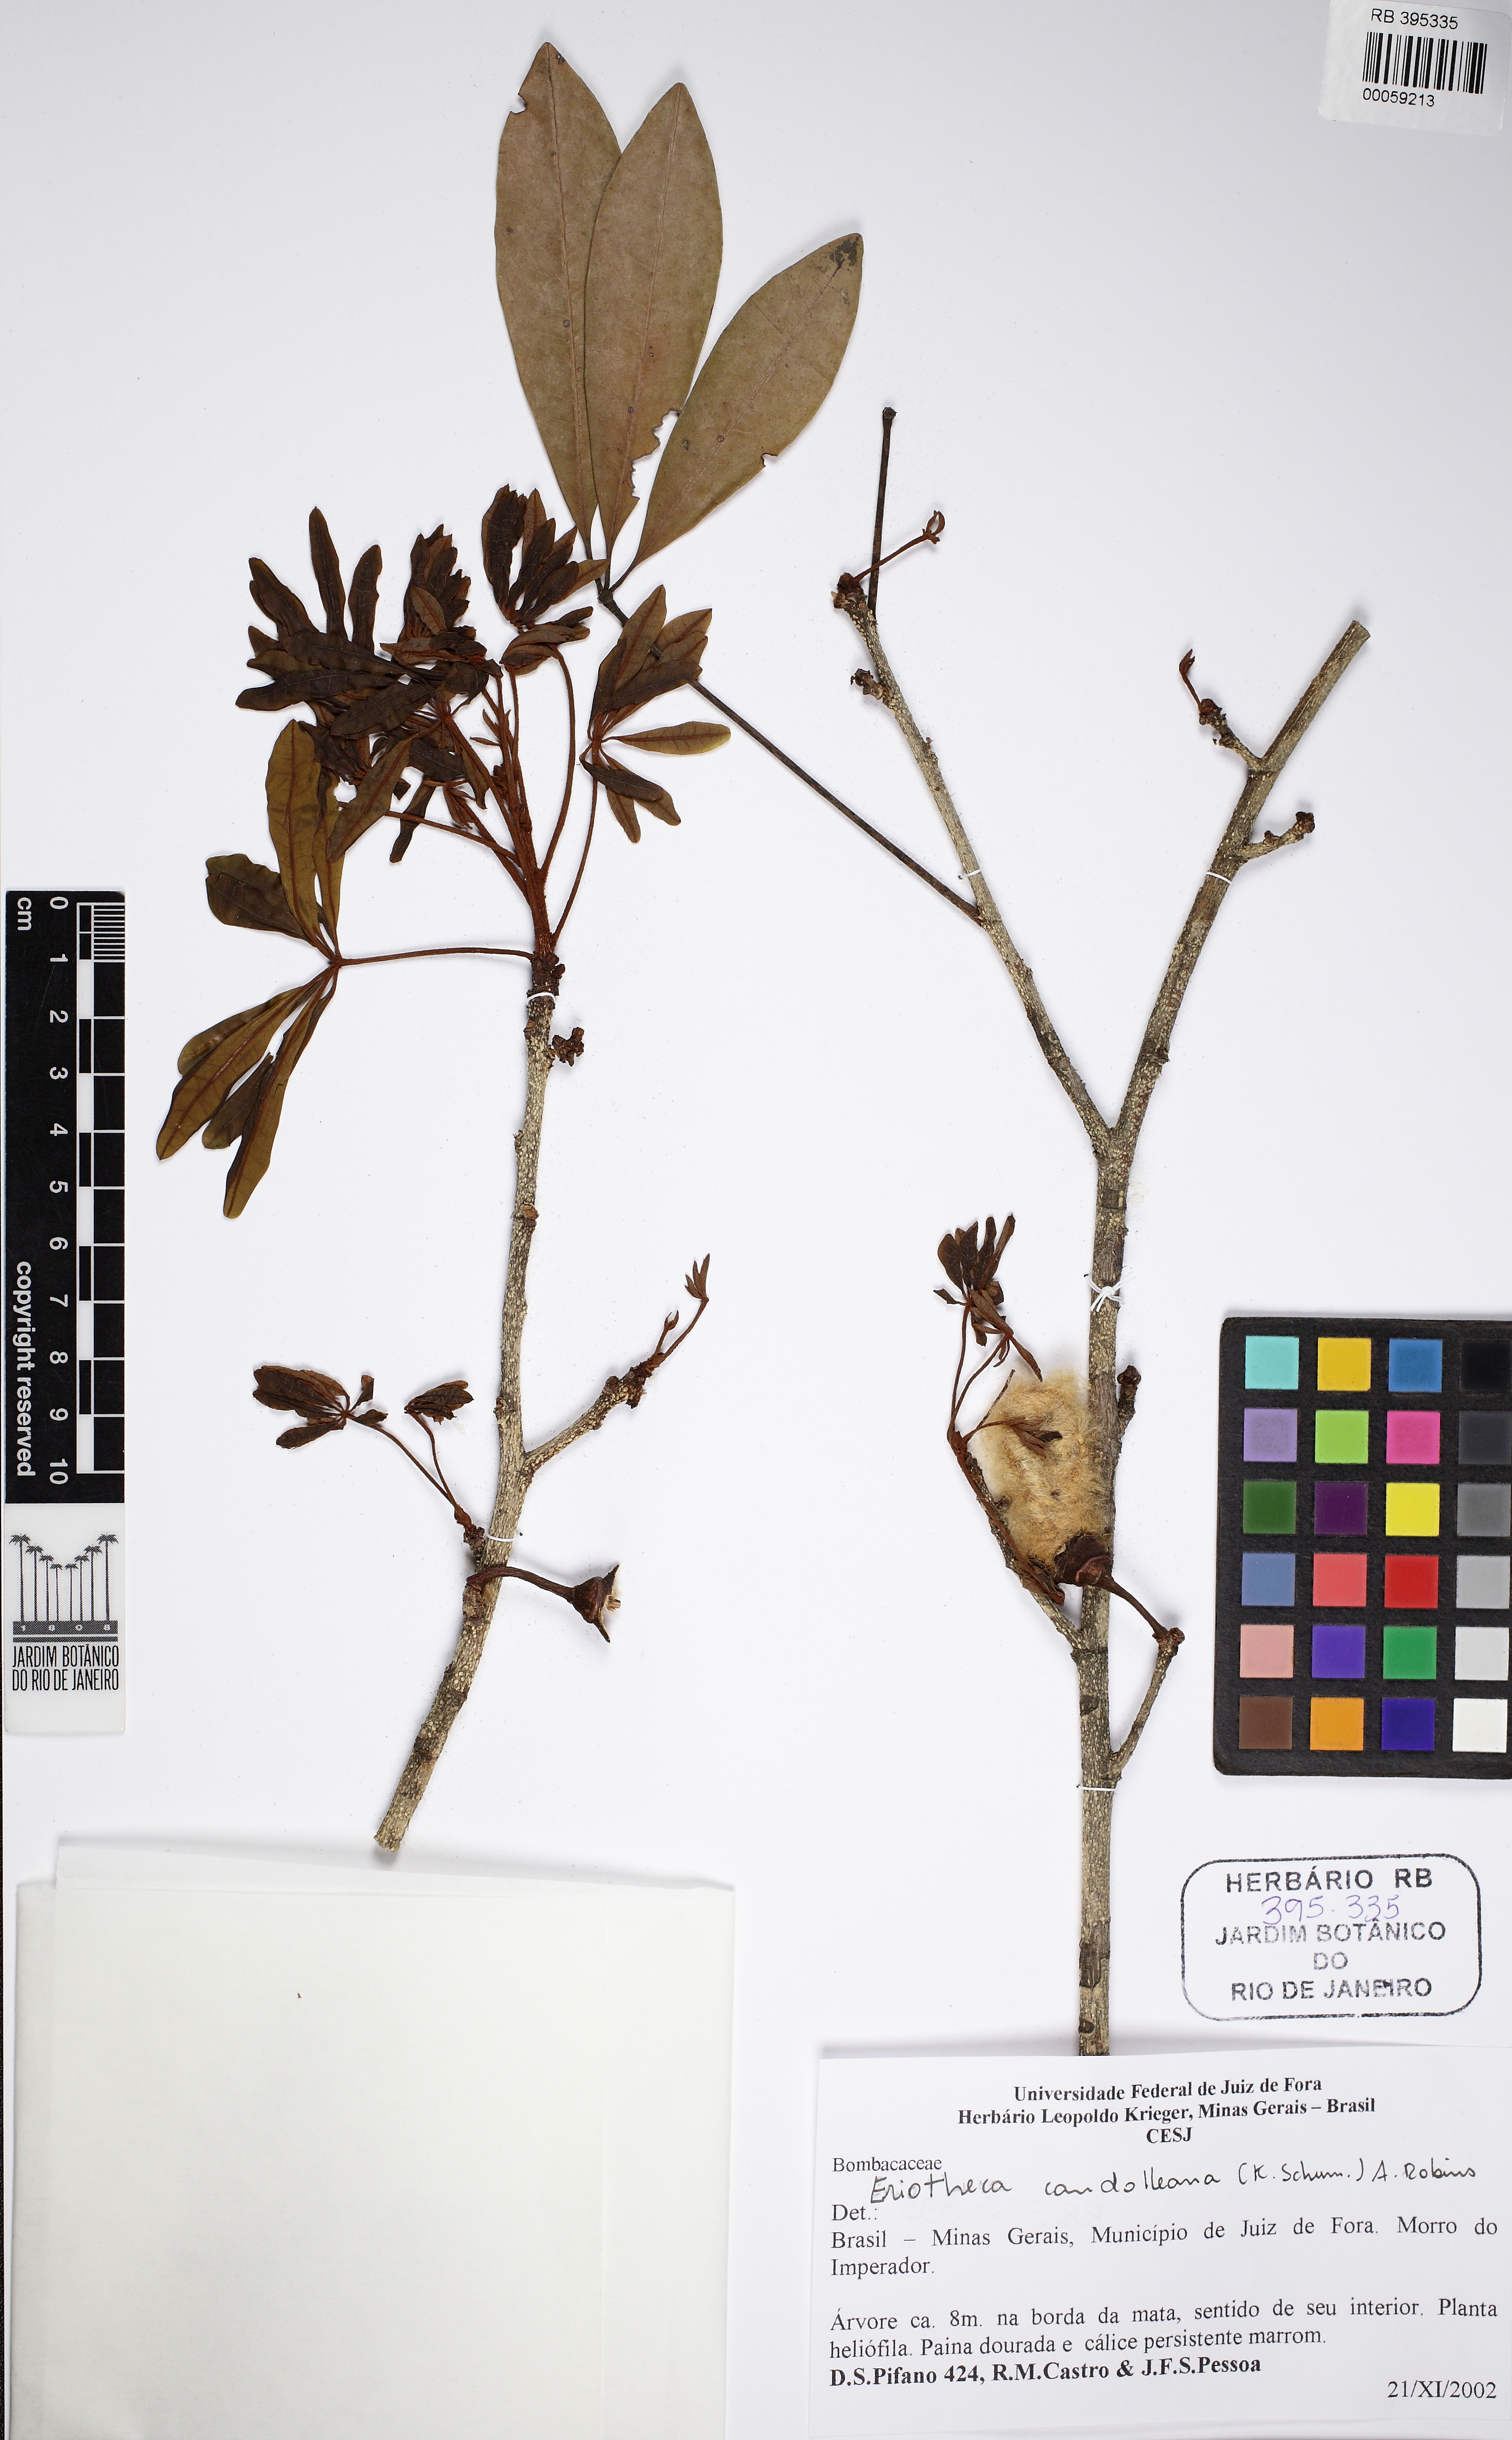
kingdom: Plantae
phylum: Tracheophyta
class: Magnoliopsida
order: Malvales
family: Malvaceae
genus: Eriotheca
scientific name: Eriotheca candolleana
